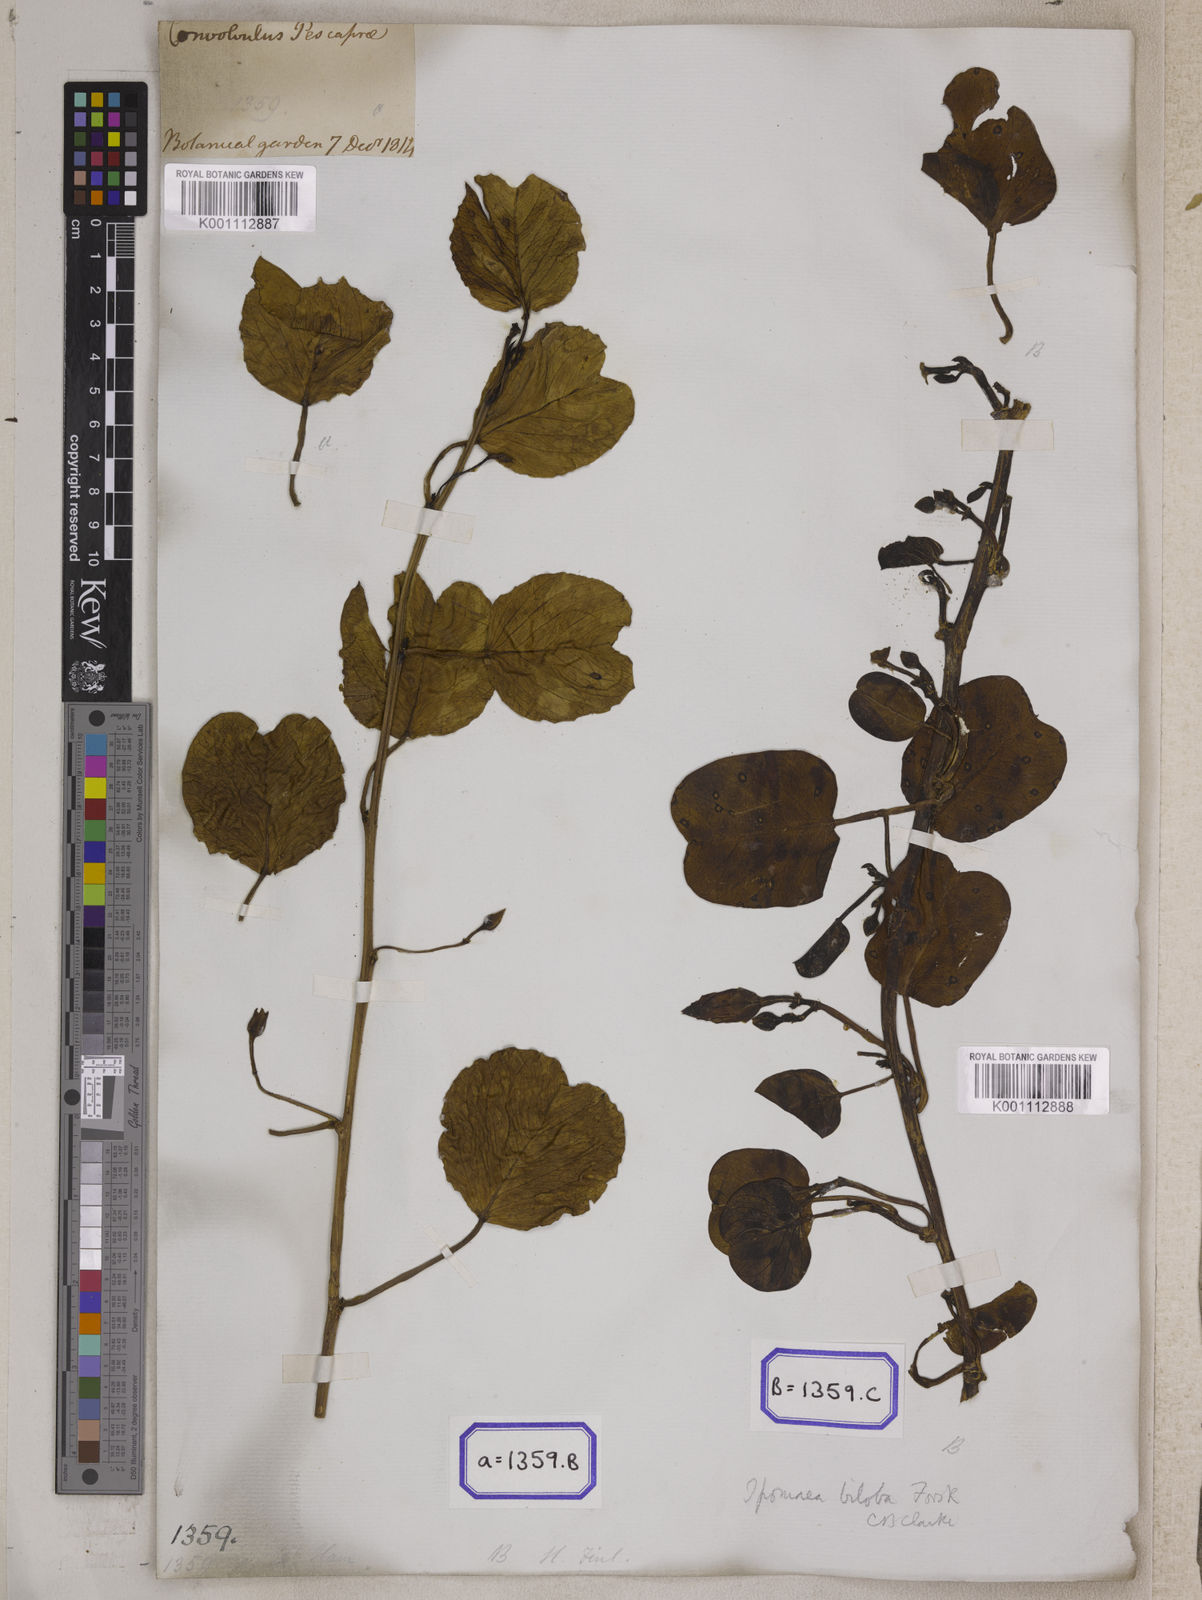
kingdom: Plantae
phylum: Tracheophyta
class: Magnoliopsida
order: Solanales
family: Convolvulaceae
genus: Ipomoea
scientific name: Ipomoea pes-caprae
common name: Beach morning glory
